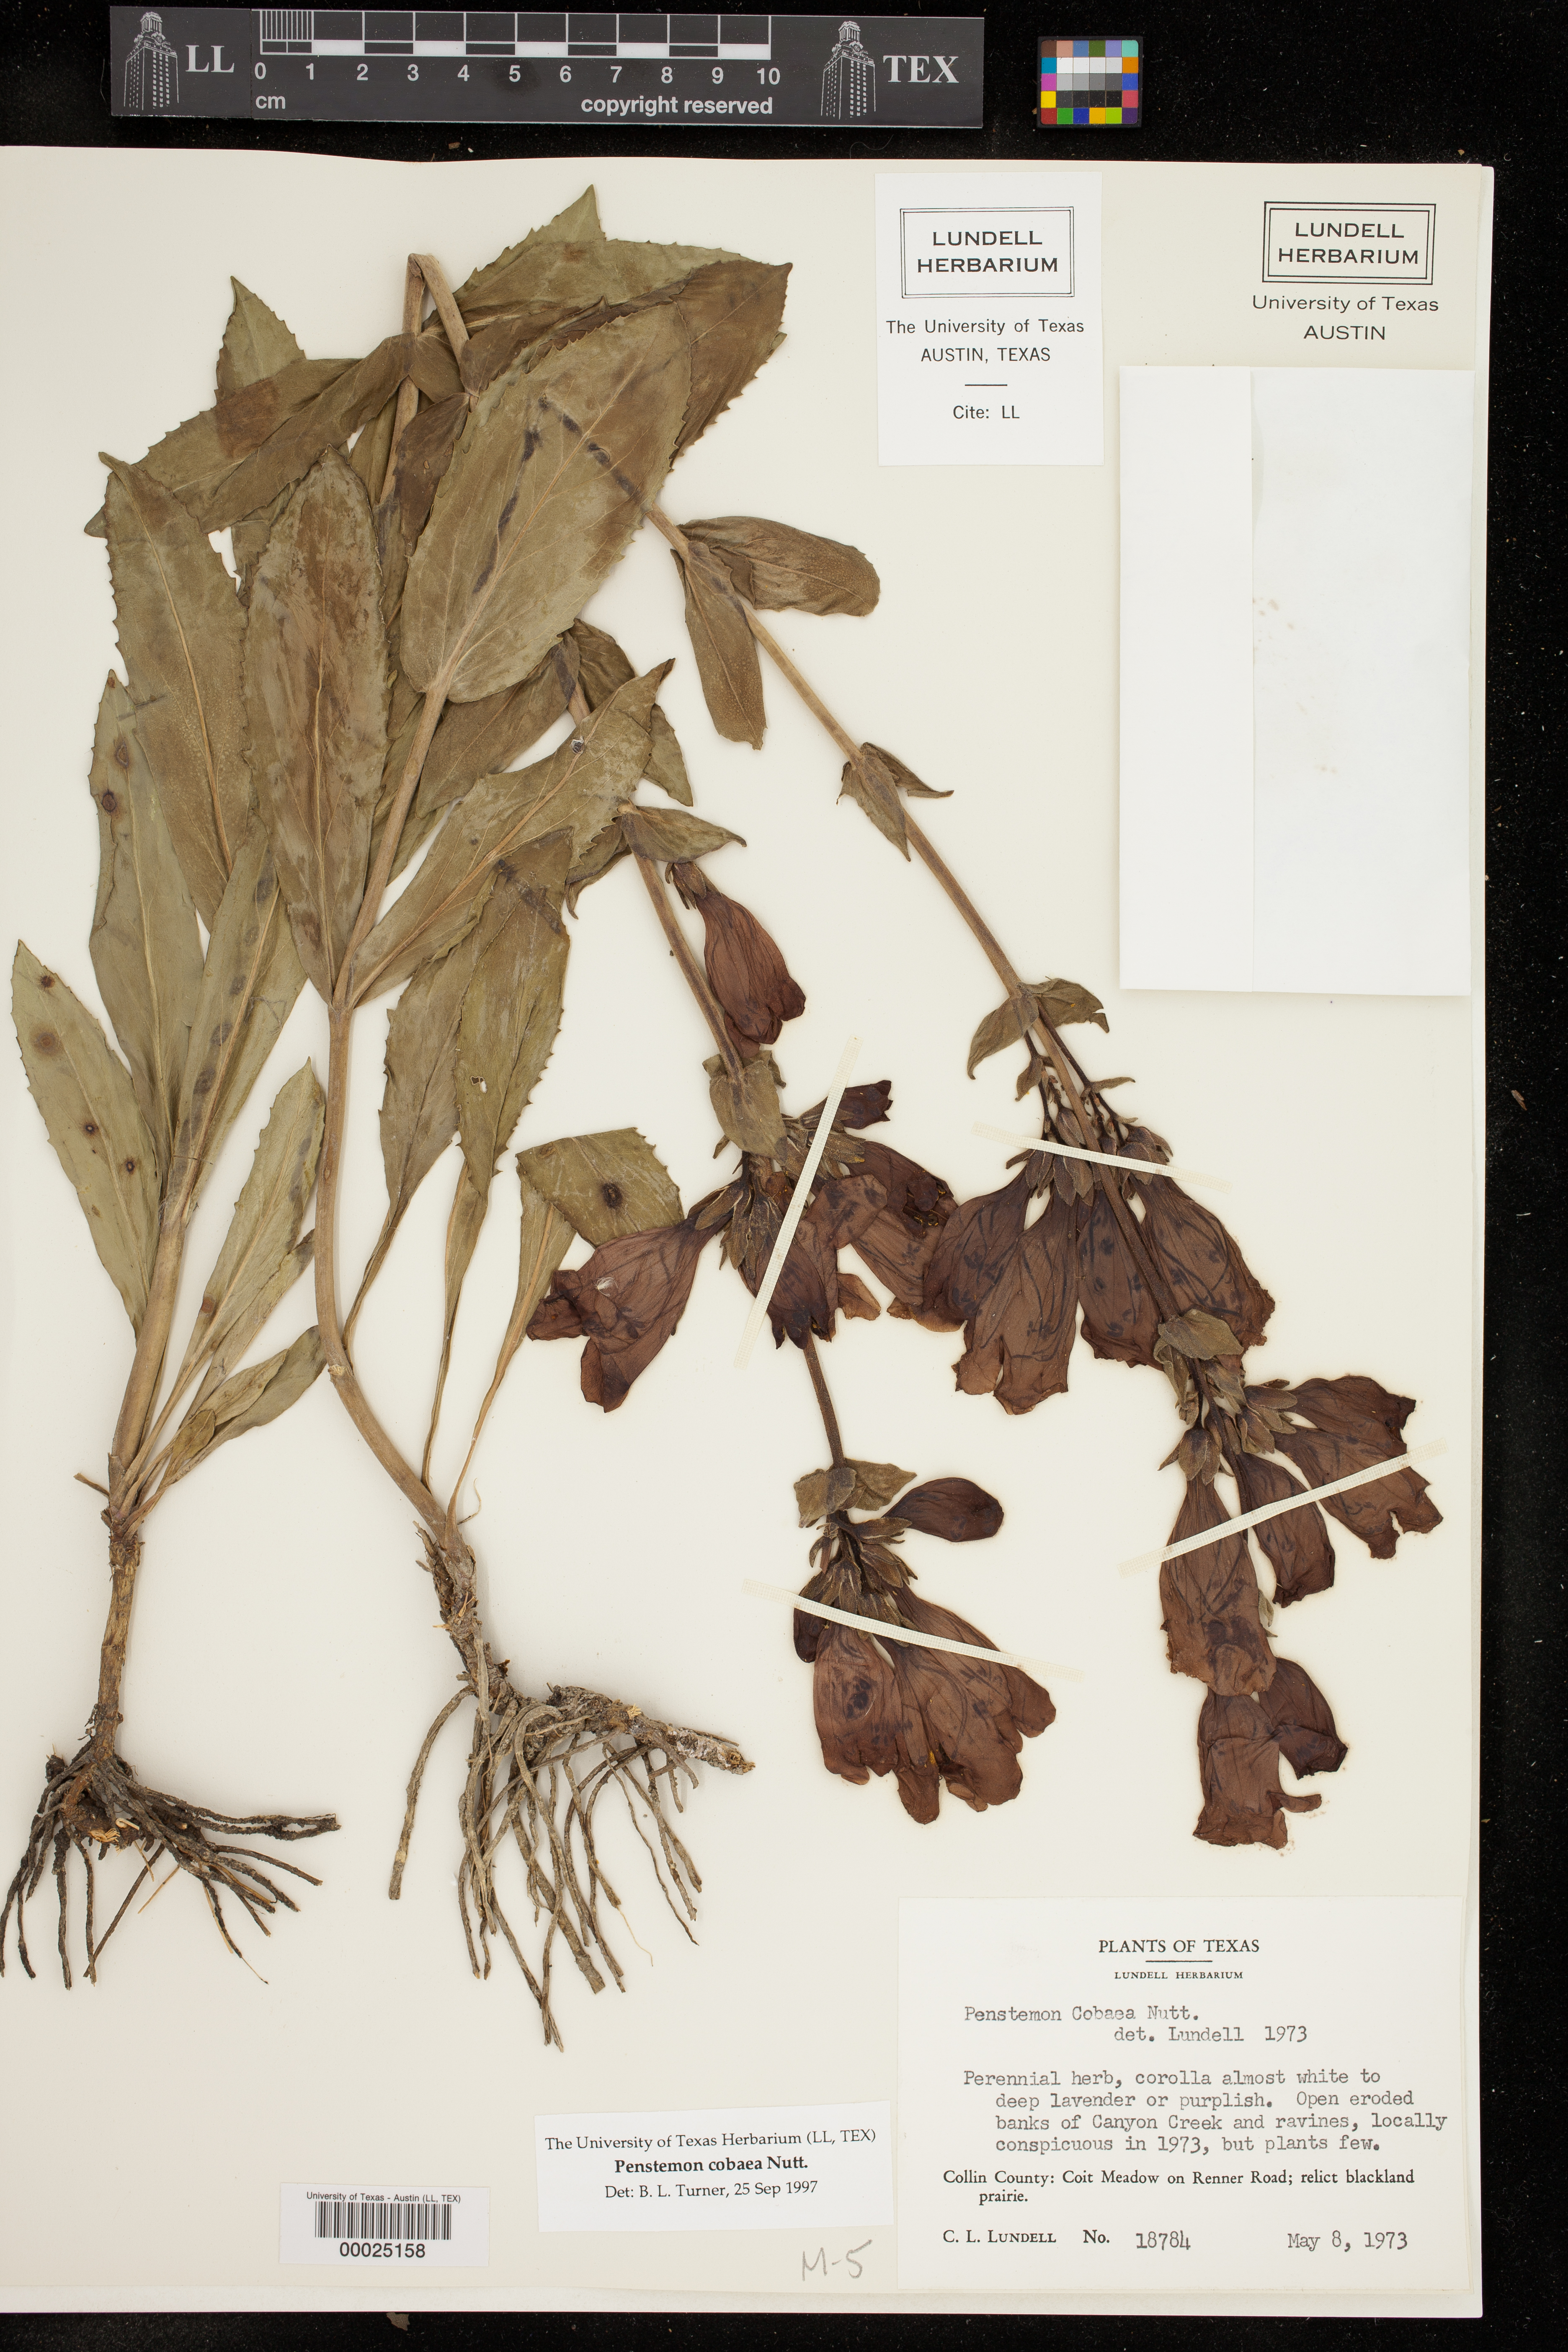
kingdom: Plantae
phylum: Tracheophyta
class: Magnoliopsida
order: Lamiales
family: Plantaginaceae
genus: Penstemon
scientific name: Penstemon cobaea
